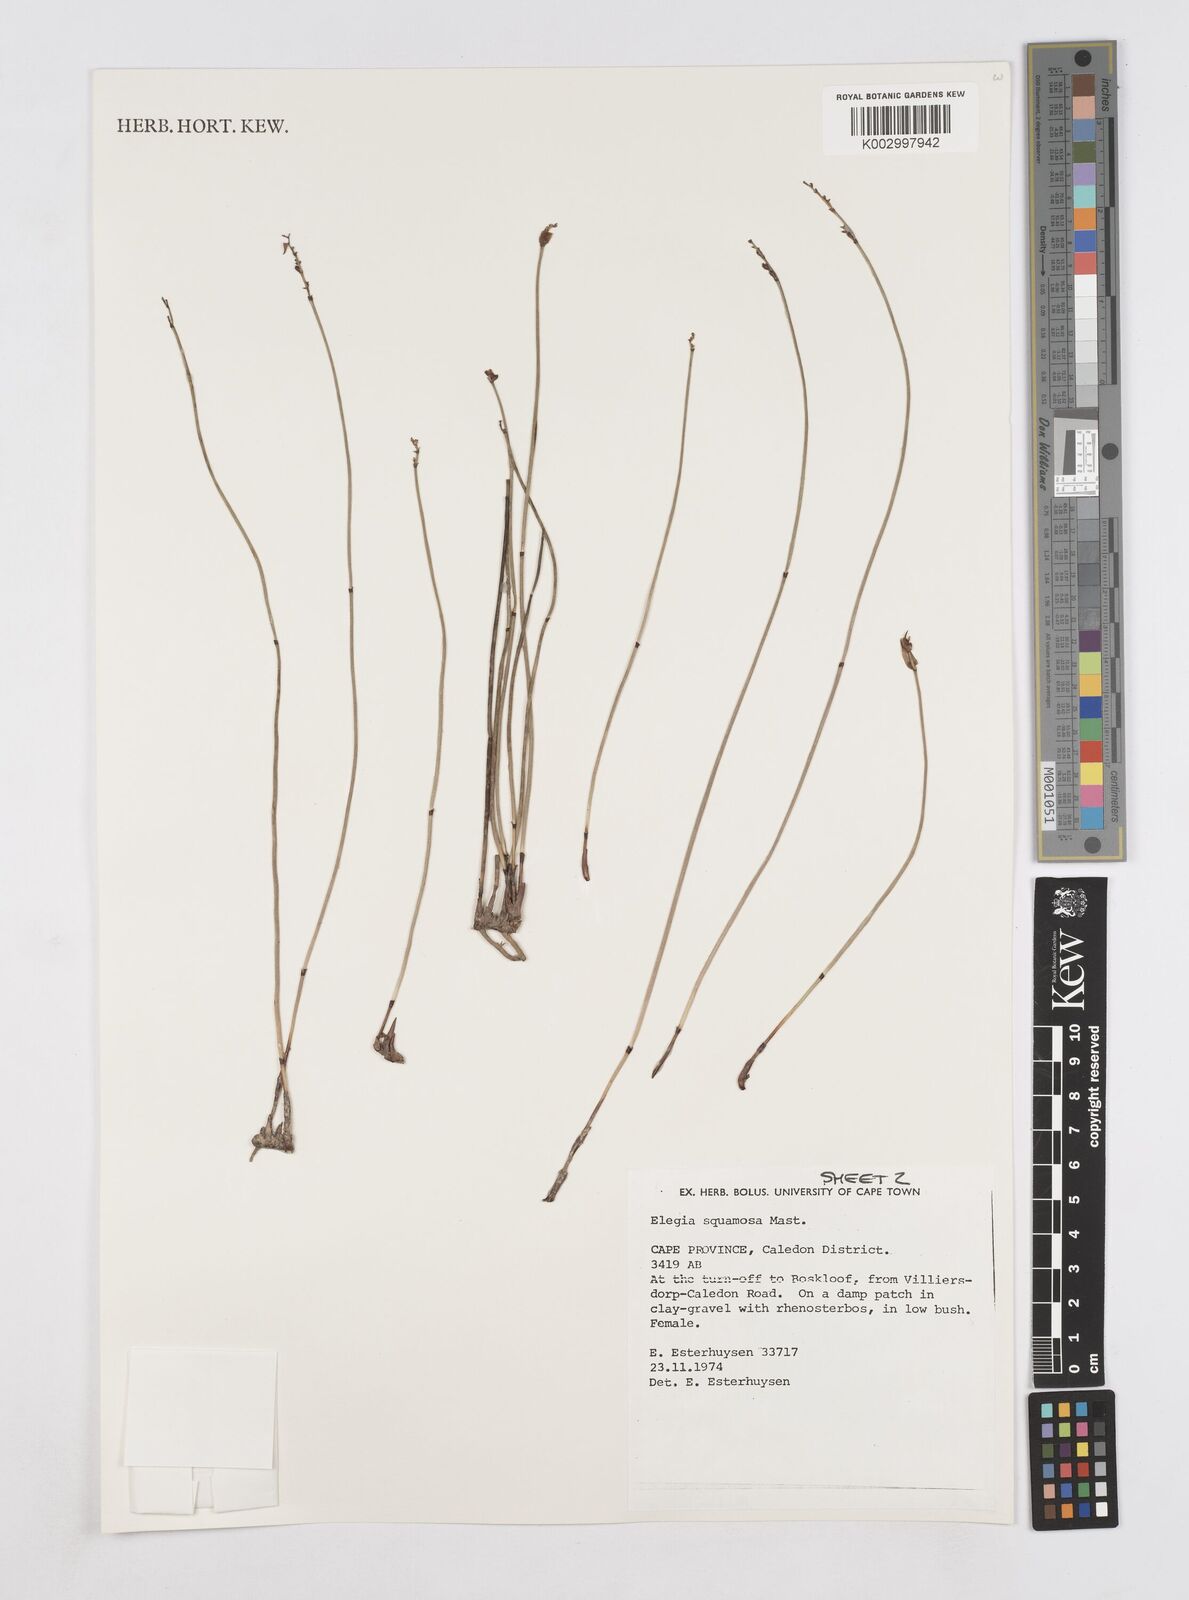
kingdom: Plantae
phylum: Tracheophyta
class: Liliopsida
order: Poales
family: Restionaceae
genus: Elegia
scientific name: Elegia squamosa
